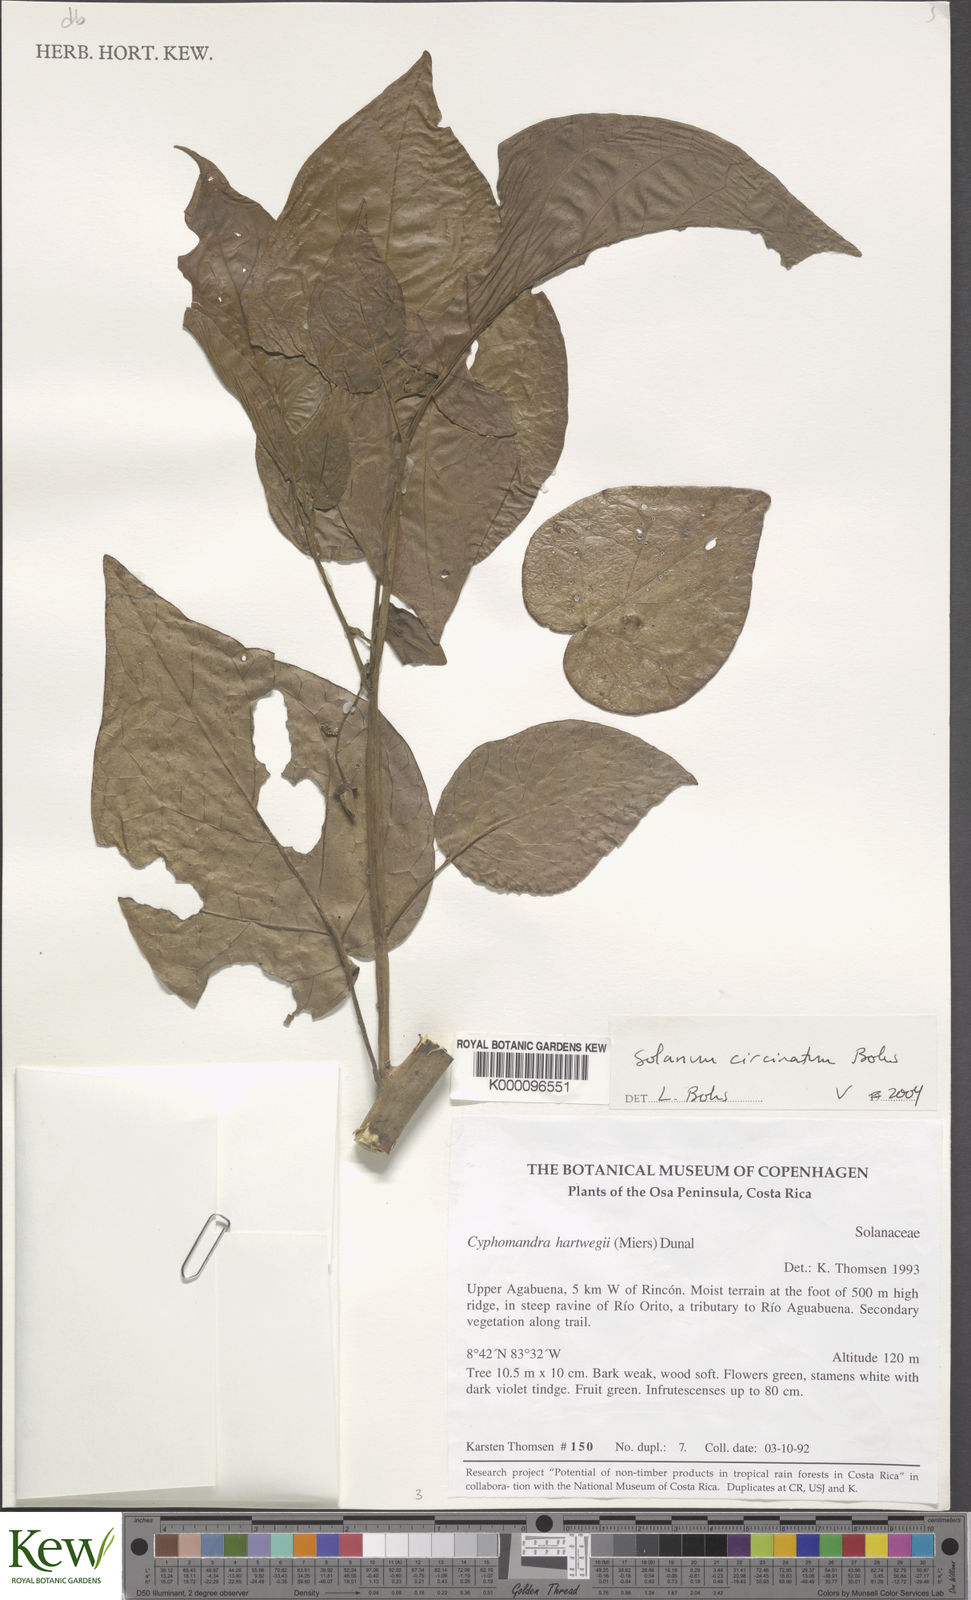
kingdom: Plantae
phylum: Tracheophyta
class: Magnoliopsida
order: Solanales
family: Solanaceae
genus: Solanum
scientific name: Solanum
